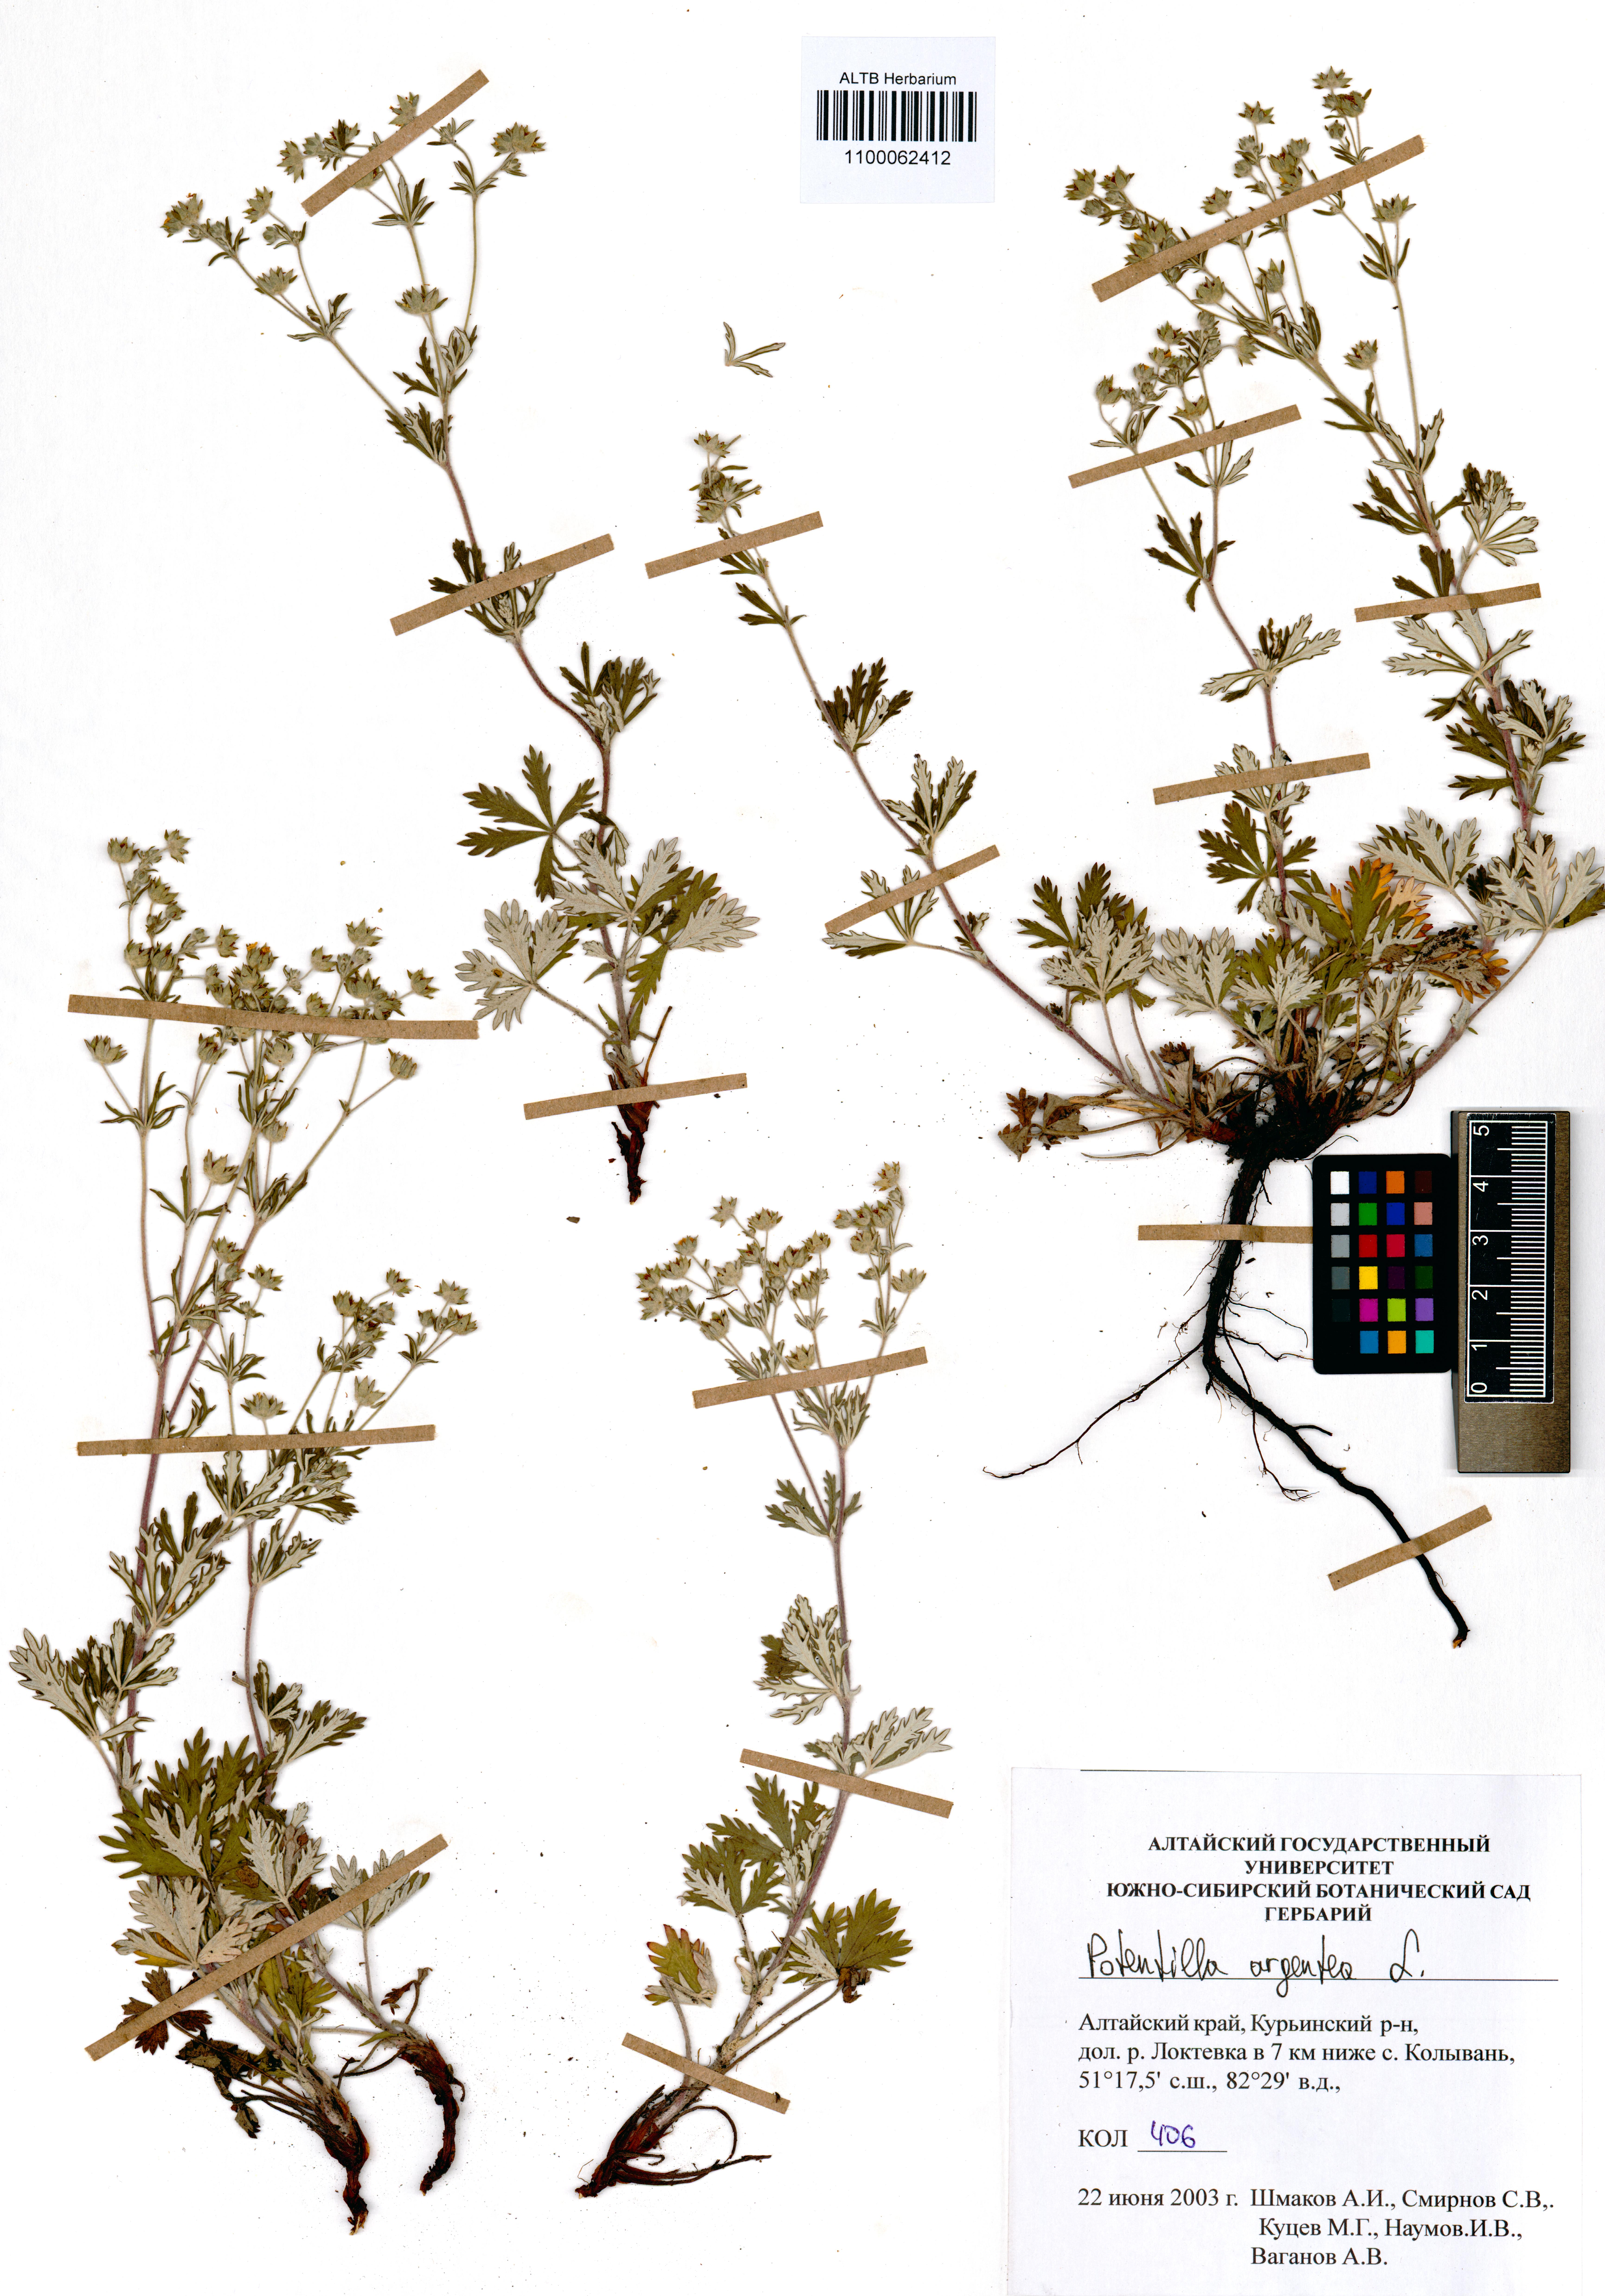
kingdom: Plantae
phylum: Tracheophyta
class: Magnoliopsida
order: Rosales
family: Rosaceae
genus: Potentilla
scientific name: Potentilla argentea
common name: Hoary cinquefoil
